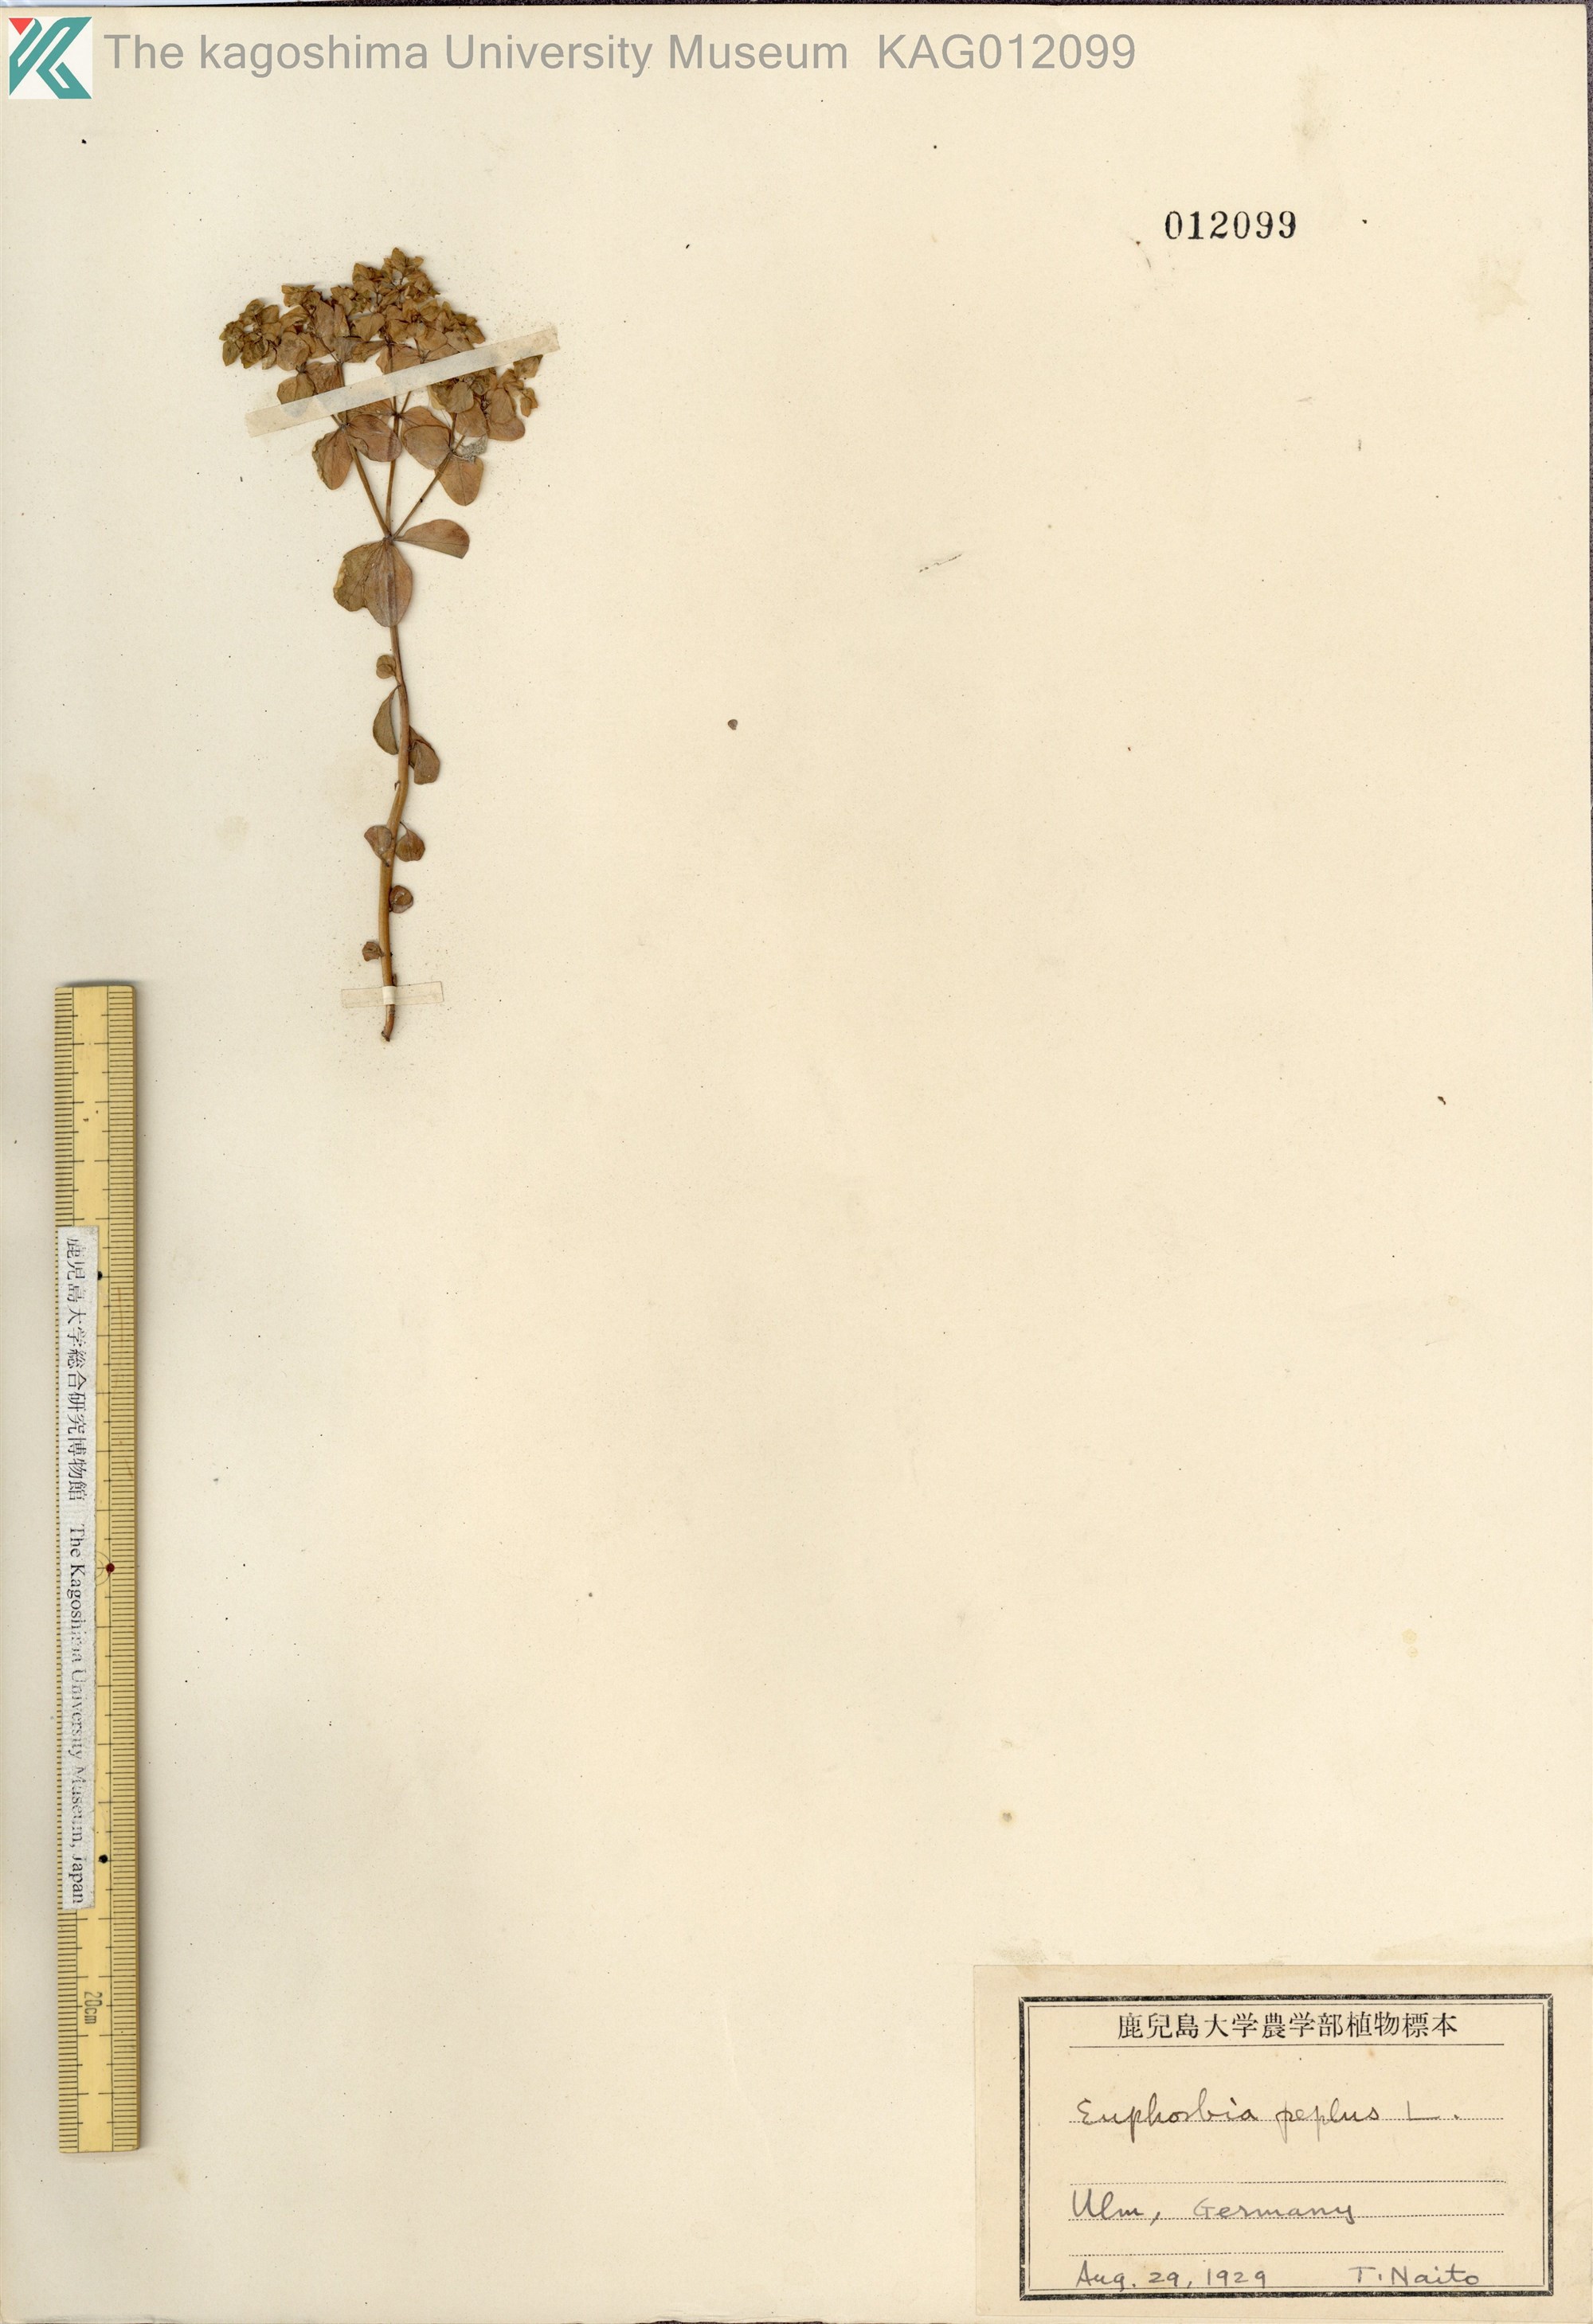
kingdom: Plantae
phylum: Tracheophyta
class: Magnoliopsida
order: Malpighiales
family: Euphorbiaceae
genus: Euphorbia
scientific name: Euphorbia peplus
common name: Petty spurge
